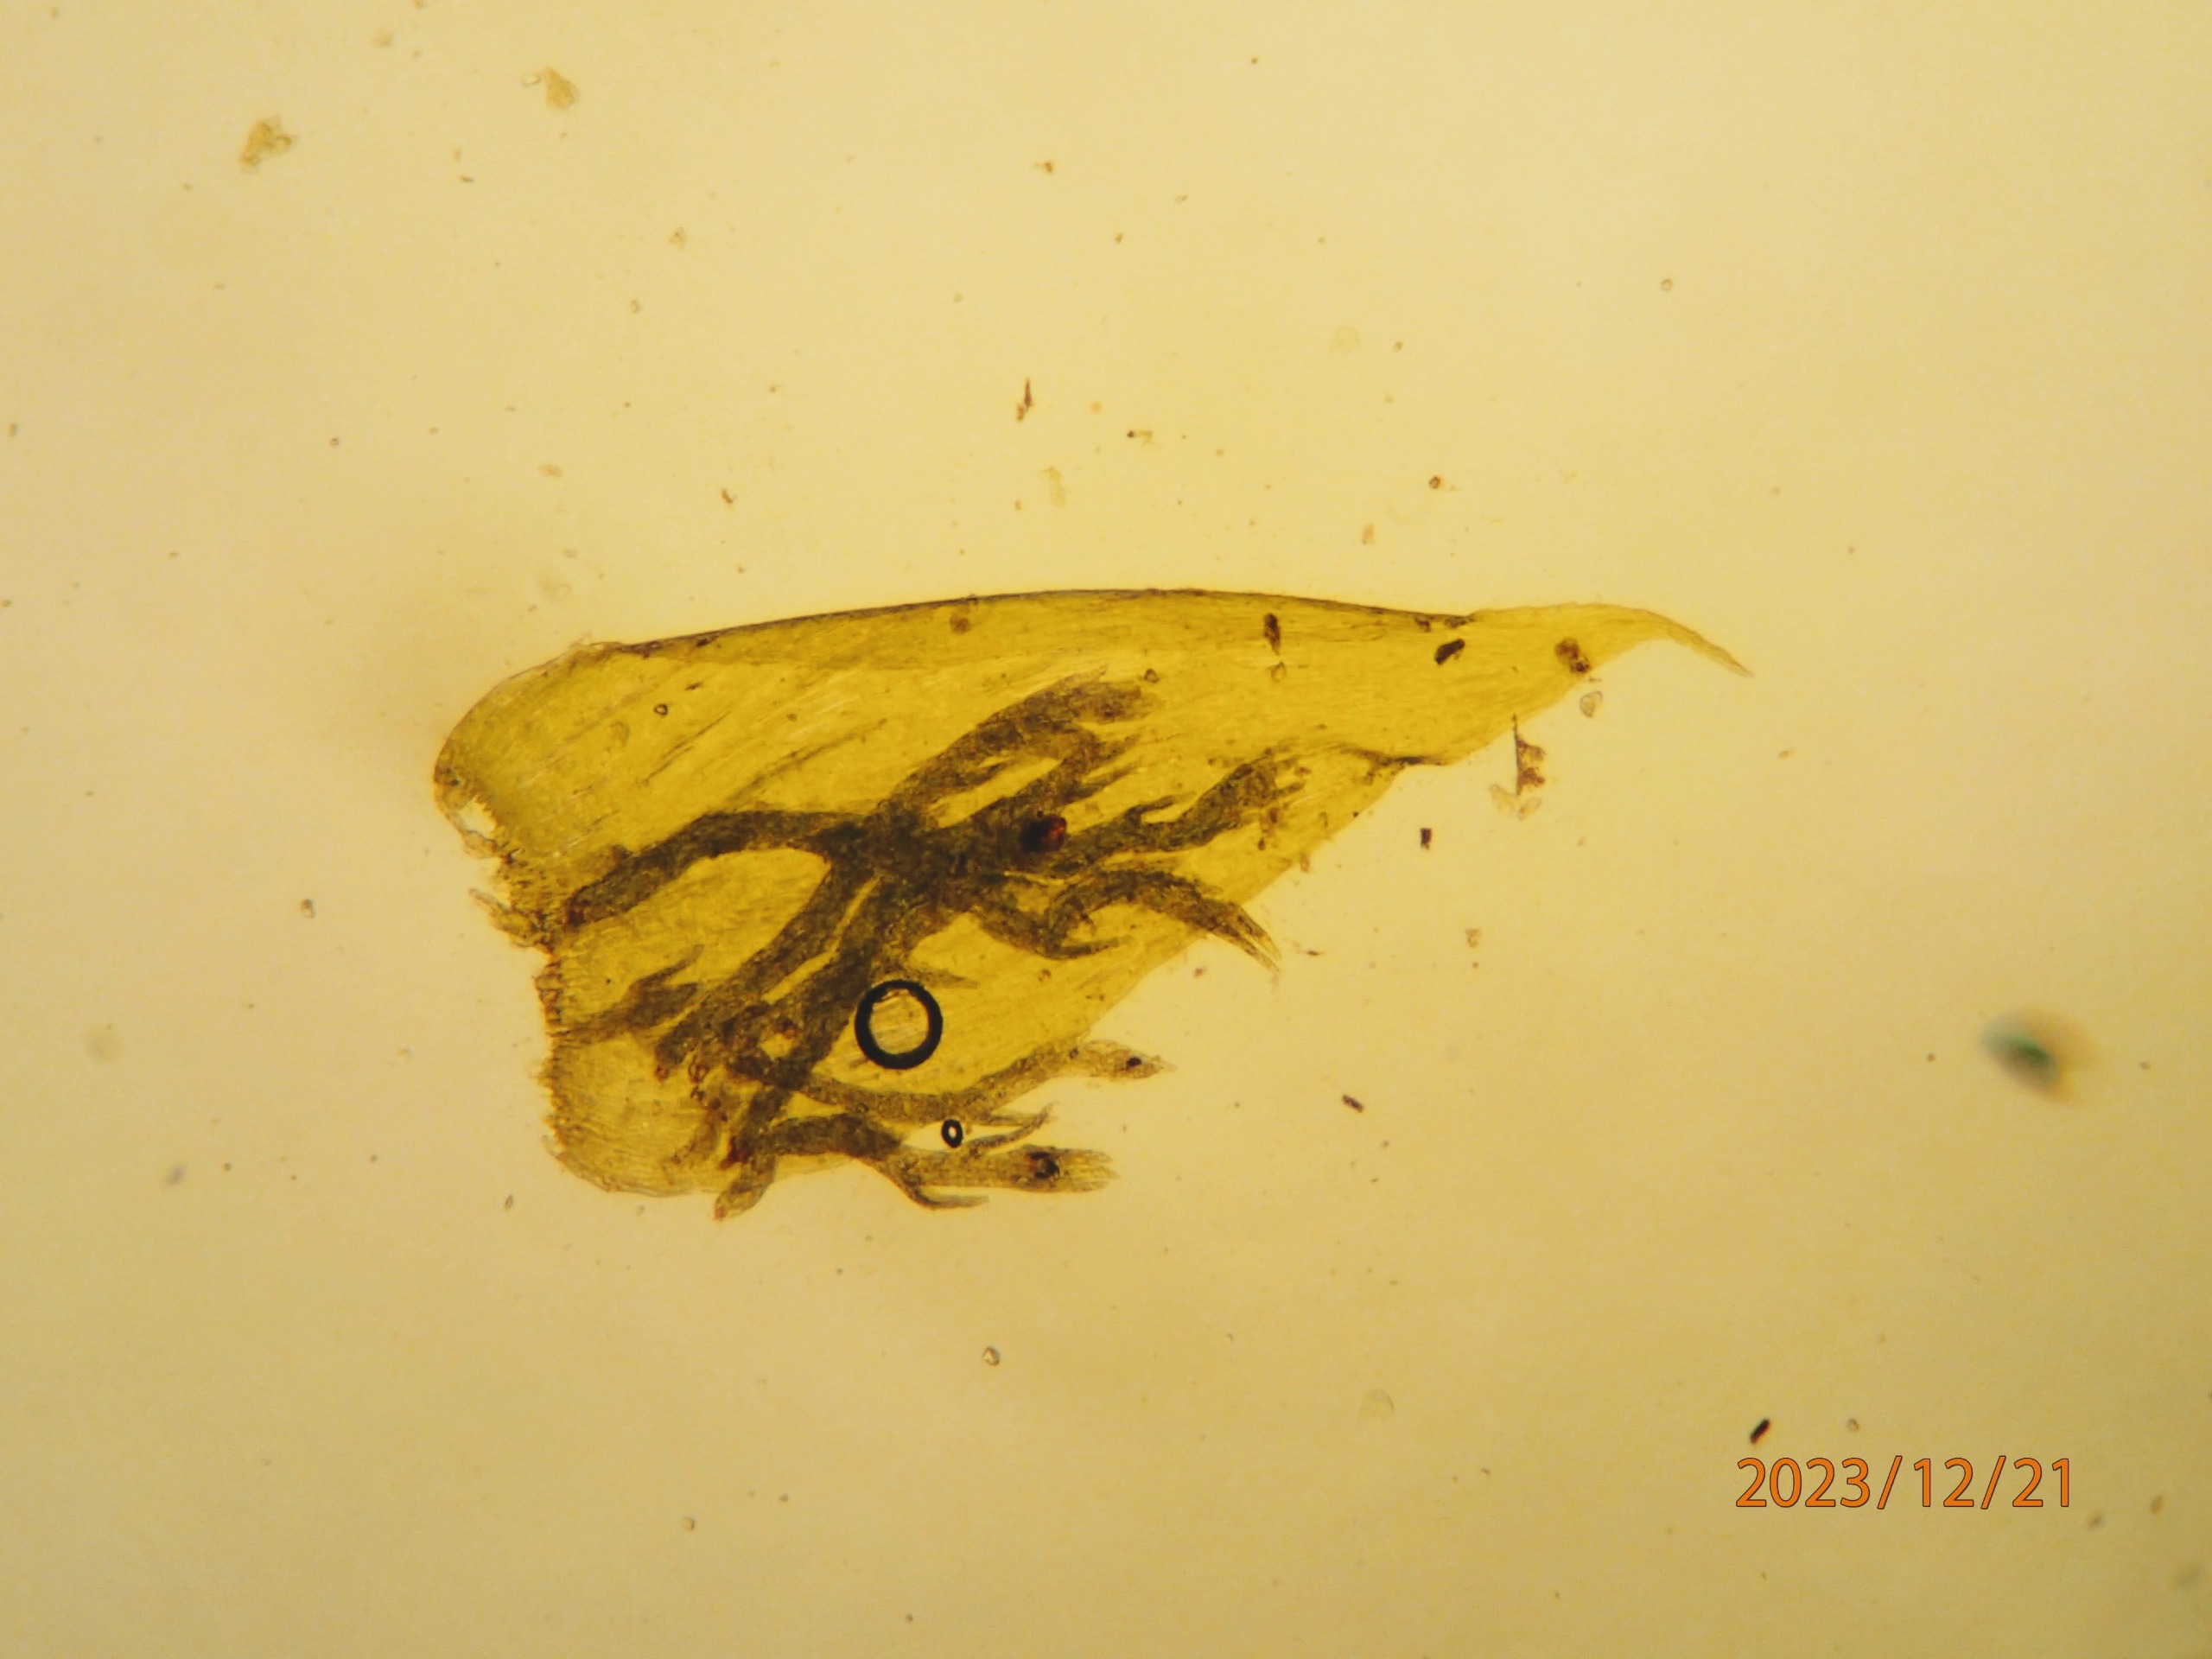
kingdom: Plantae
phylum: Bryophyta
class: Bryopsida
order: Hypnales
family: Plagiotheciaceae
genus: Pseudotaxiphyllum
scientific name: Pseudotaxiphyllum elegans
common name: Skinnende ynglegren
